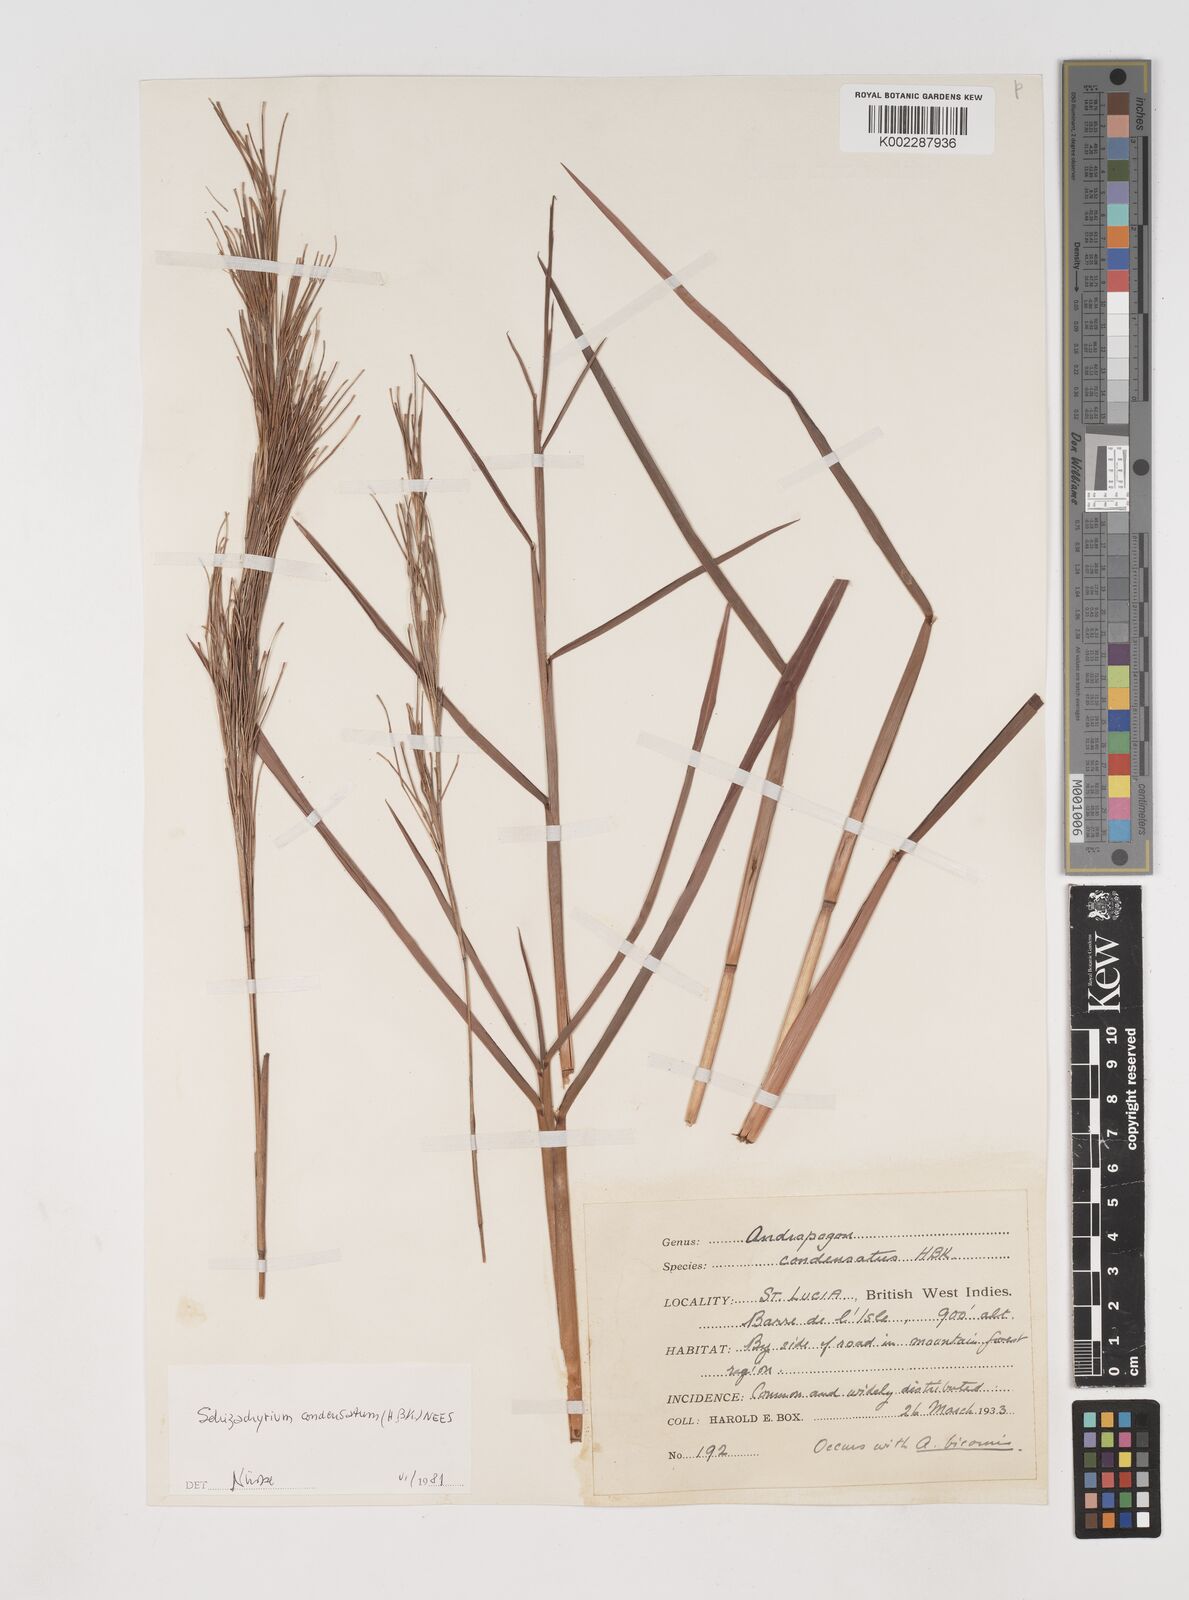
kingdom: Plantae
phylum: Tracheophyta
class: Liliopsida
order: Poales
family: Poaceae
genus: Schizachyrium
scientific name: Schizachyrium condensatum
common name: Bush beardgrass
